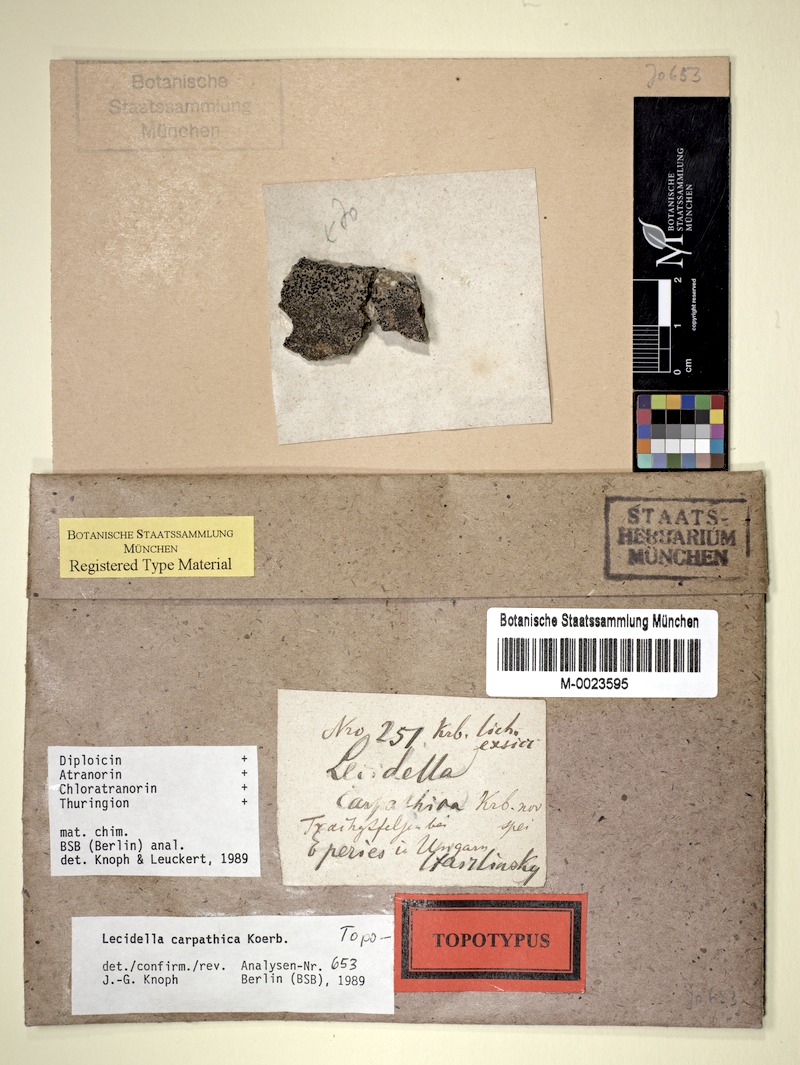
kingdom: Fungi
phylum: Ascomycota
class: Lecanoromycetes
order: Lecanorales
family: Lecanoraceae
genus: Lecidella
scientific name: Lecidella carpathica
